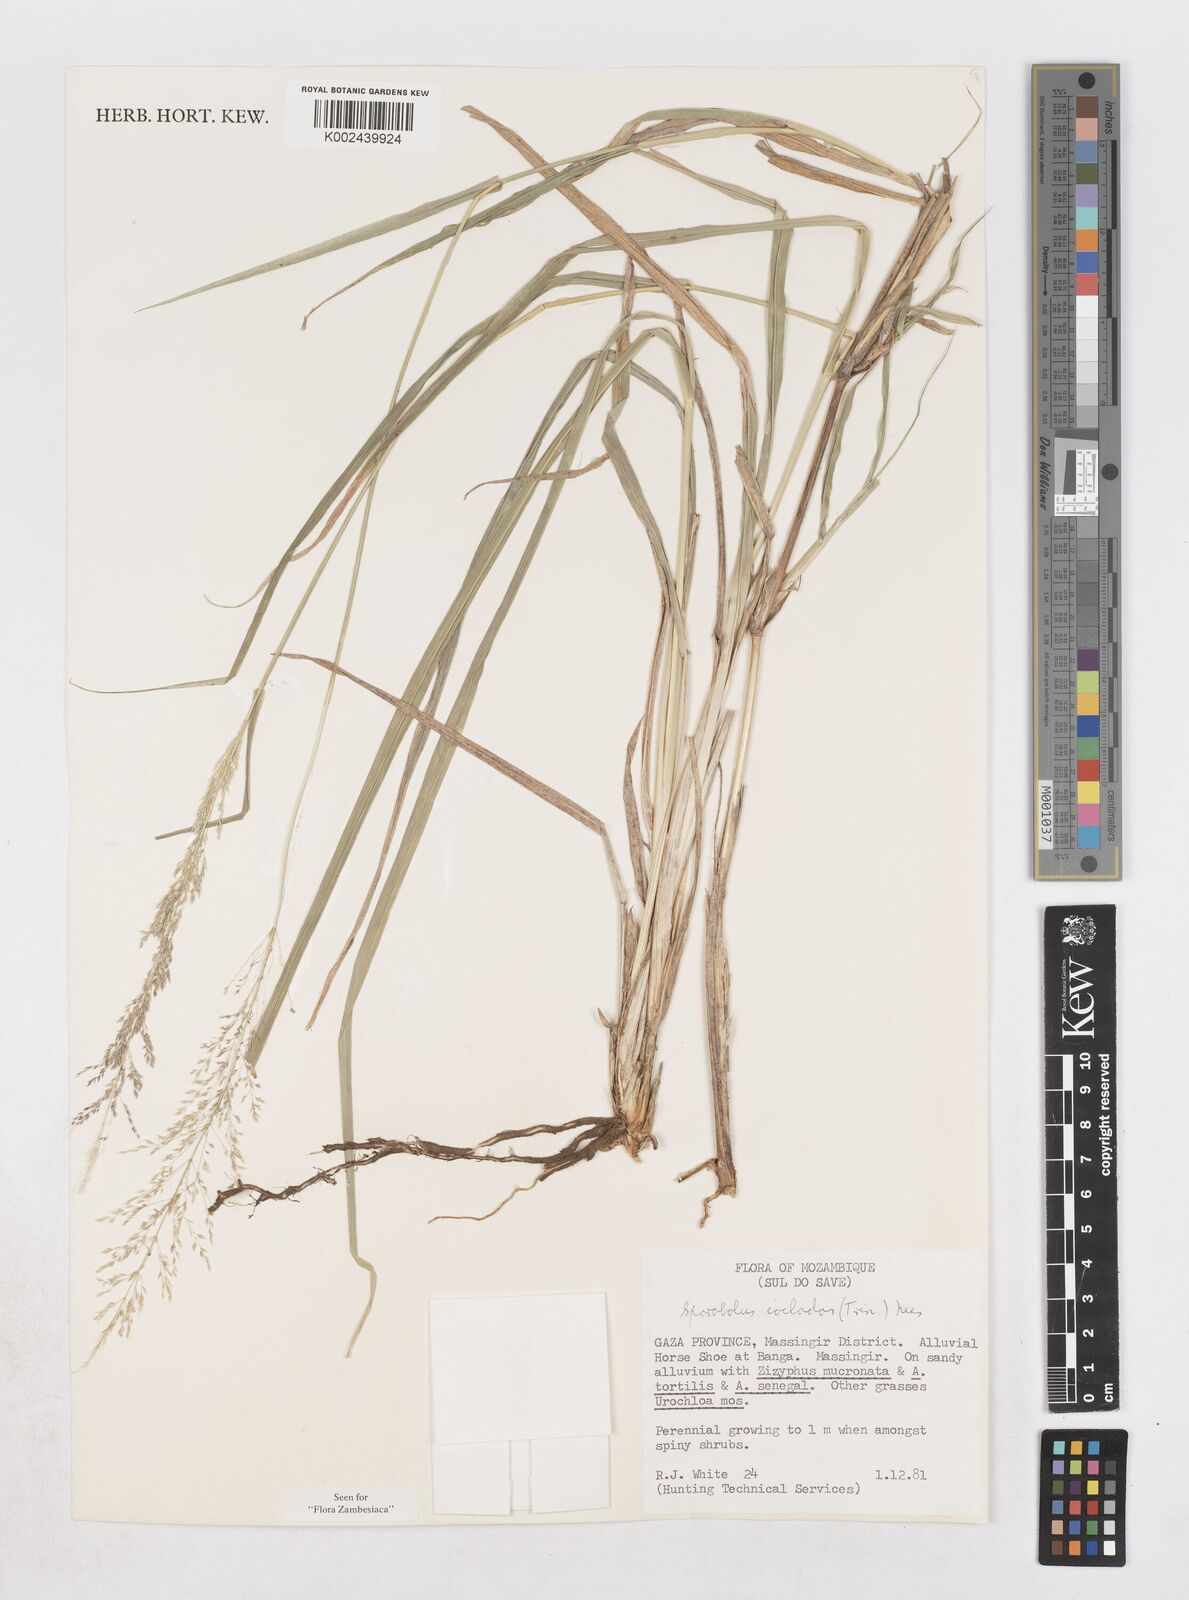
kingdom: Plantae
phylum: Tracheophyta
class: Liliopsida
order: Poales
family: Poaceae
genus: Sporobolus
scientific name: Sporobolus ioclados
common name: Pan dropseed
